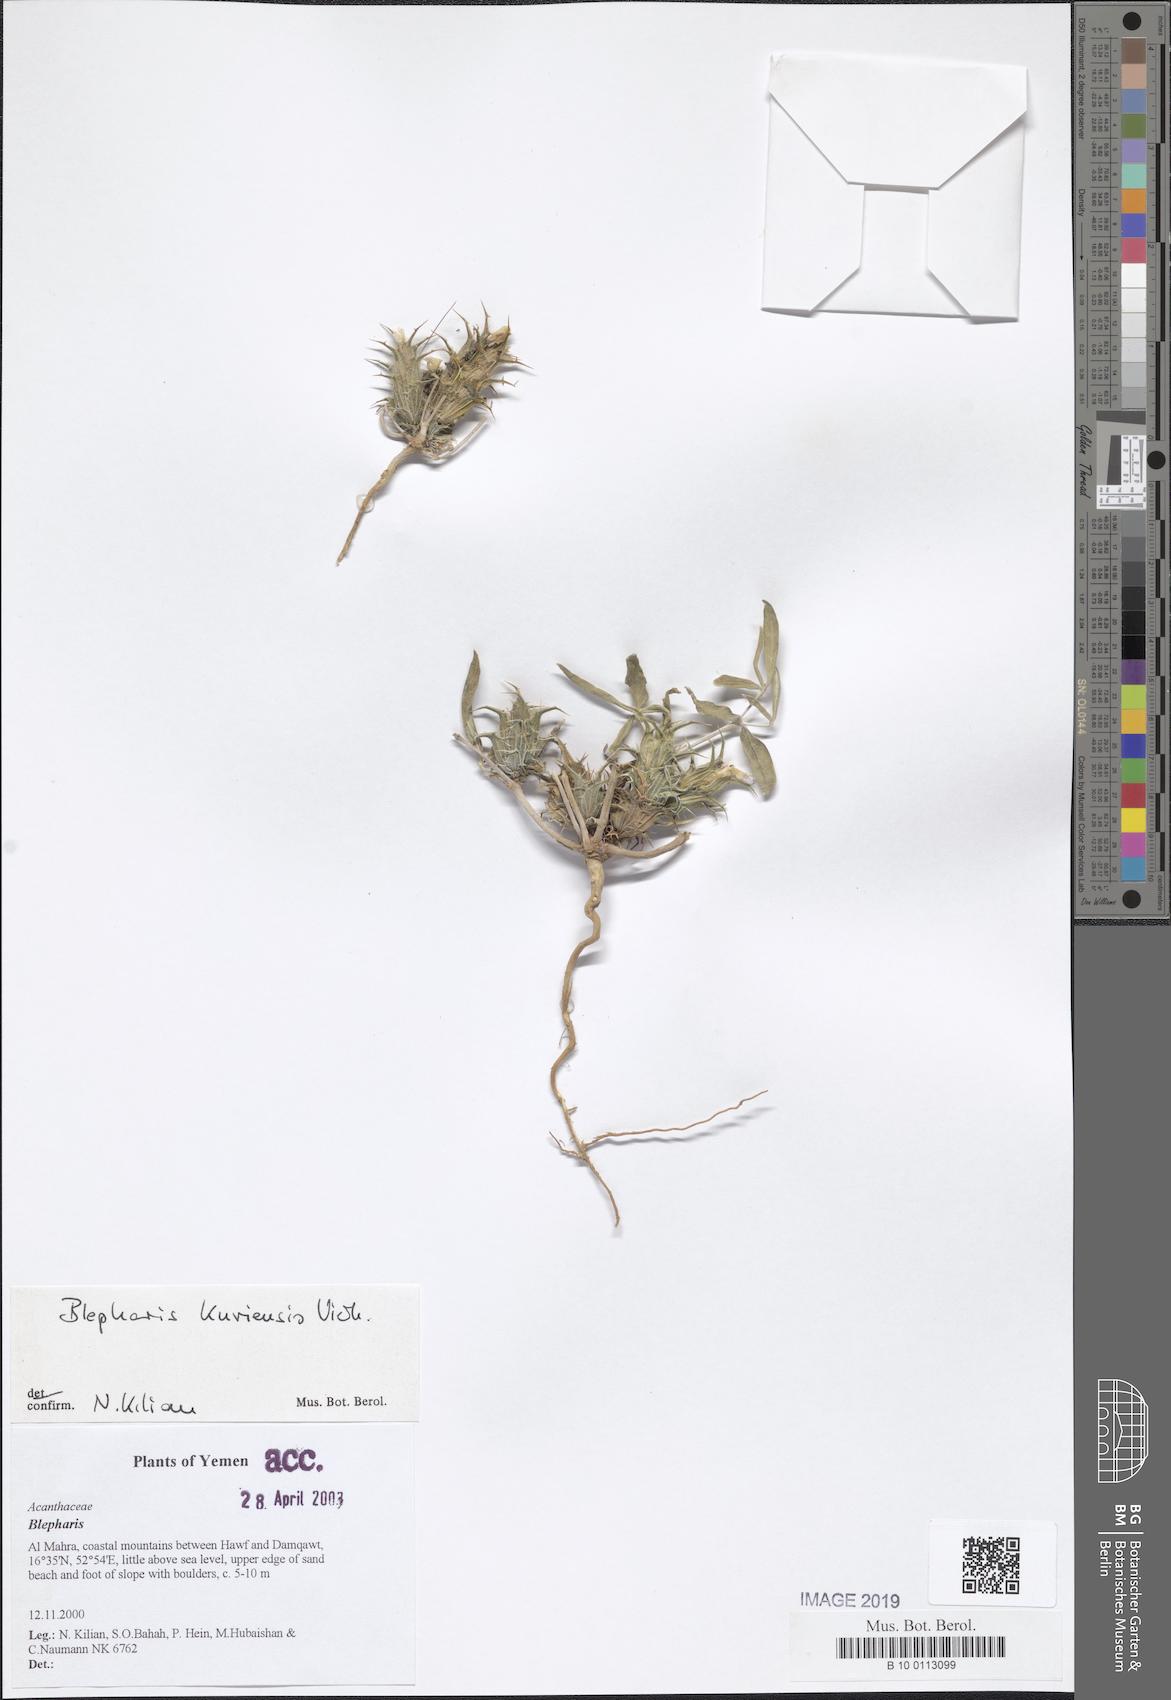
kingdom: Plantae
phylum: Tracheophyta
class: Magnoliopsida
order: Lamiales
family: Acanthaceae
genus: Blepharis
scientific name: Blepharis kuriensis
